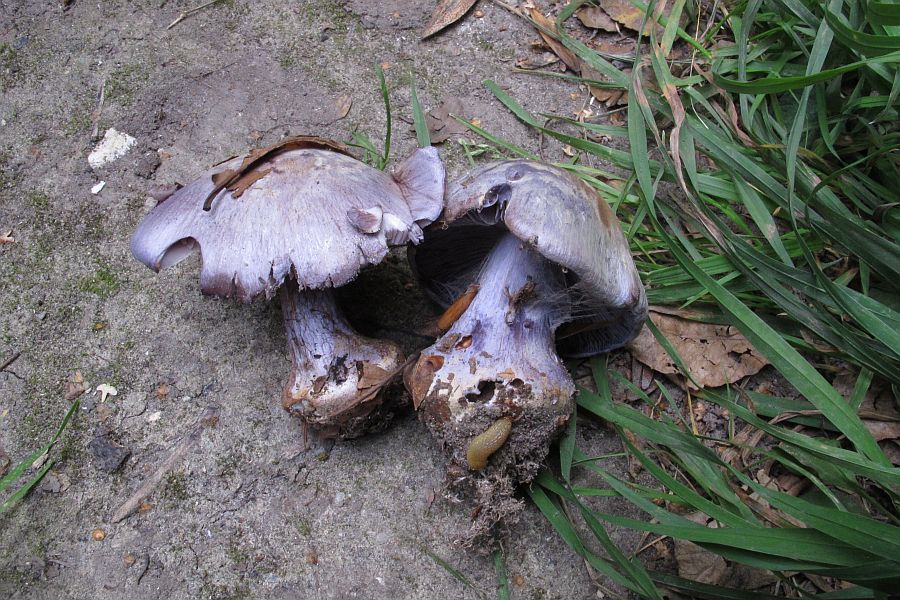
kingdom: Fungi
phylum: Basidiomycota
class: Agaricomycetes
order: Agaricales
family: Cortinariaceae
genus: Cortinarius
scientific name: Cortinarius caerulescens
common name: blåkødet slørhat
